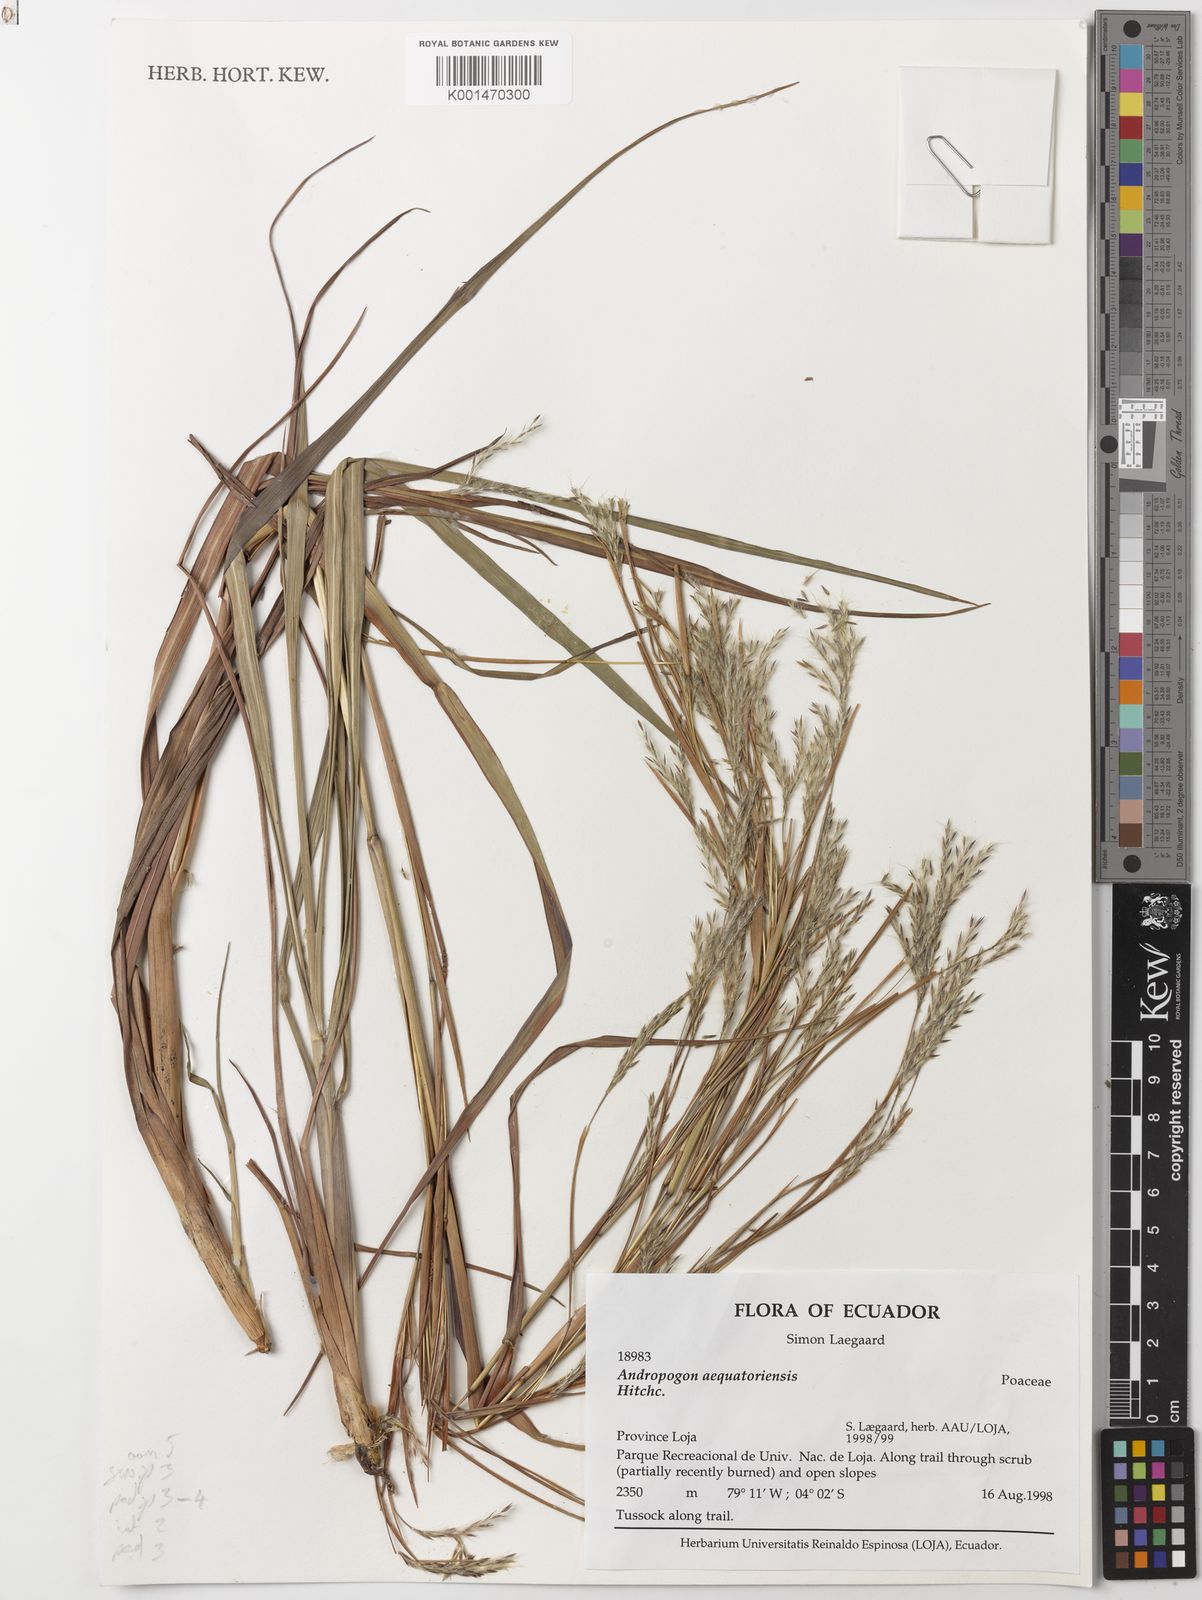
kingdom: Plantae
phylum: Tracheophyta
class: Liliopsida
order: Poales
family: Poaceae
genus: Andropogon
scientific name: Andropogon aequatoriensis
